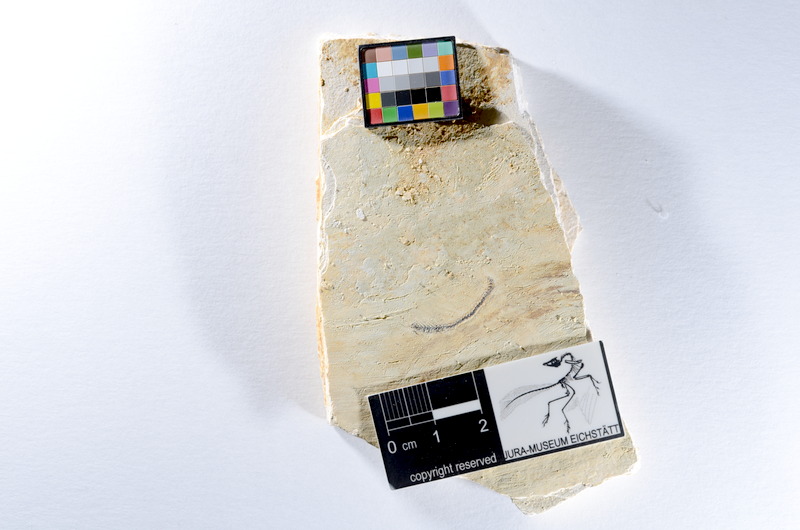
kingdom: Animalia
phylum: Chordata
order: Salmoniformes
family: Orthogonikleithridae
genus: Orthogonikleithrus
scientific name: Orthogonikleithrus hoelli
